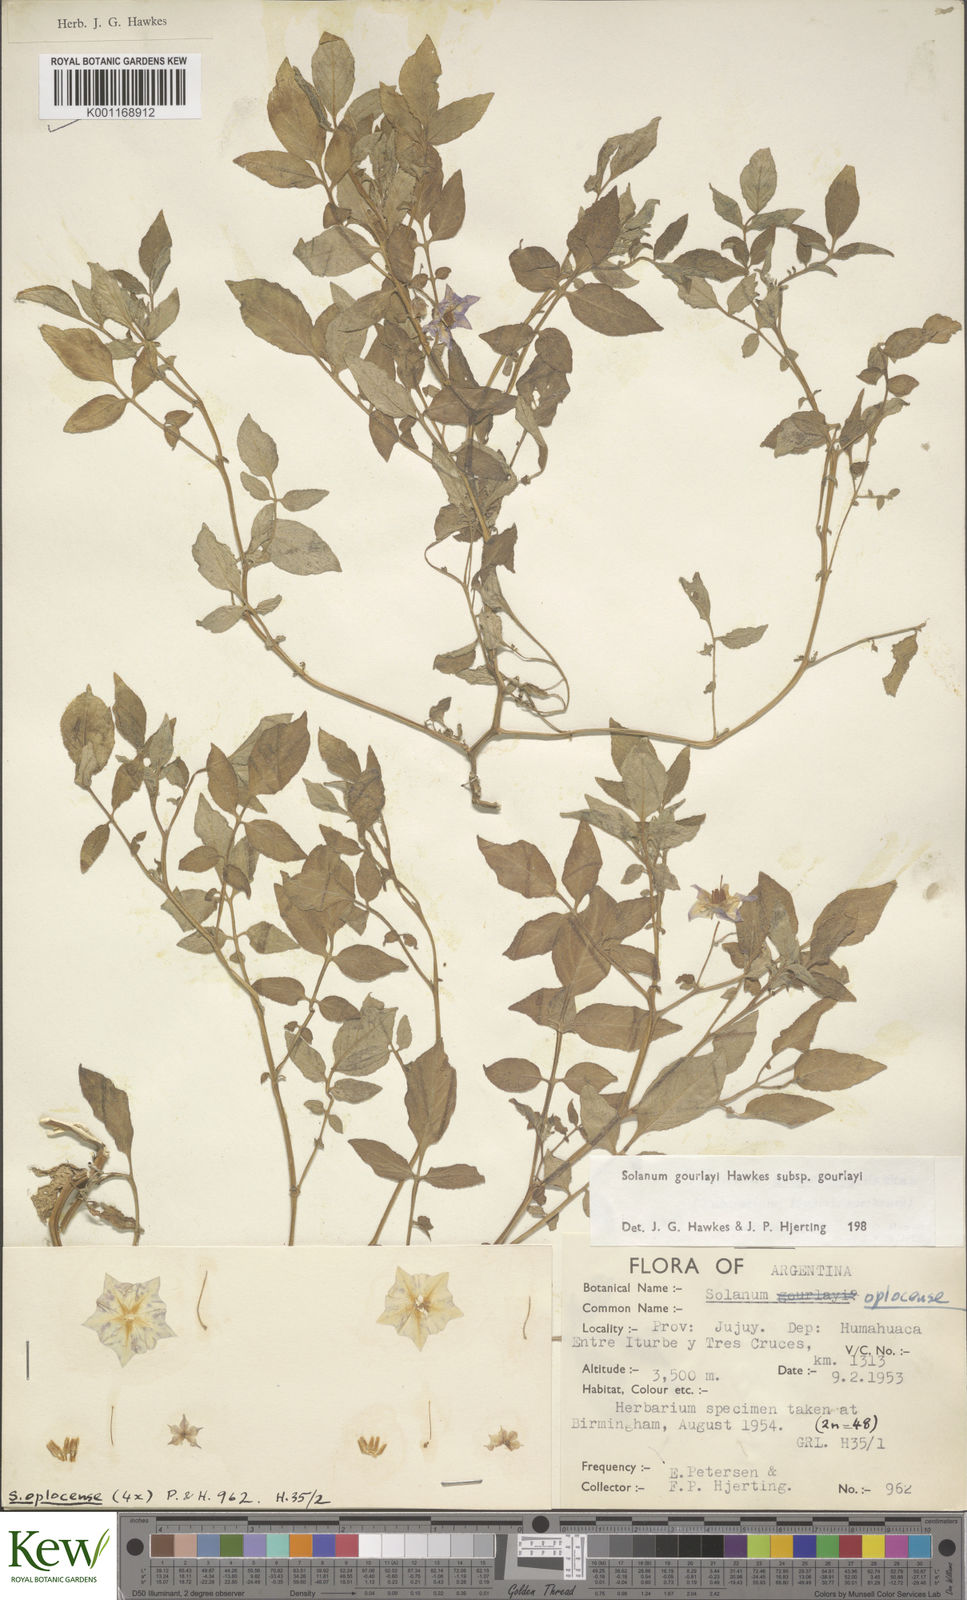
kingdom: Plantae
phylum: Tracheophyta
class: Magnoliopsida
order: Solanales
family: Solanaceae
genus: Solanum
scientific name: Solanum brevicaule
